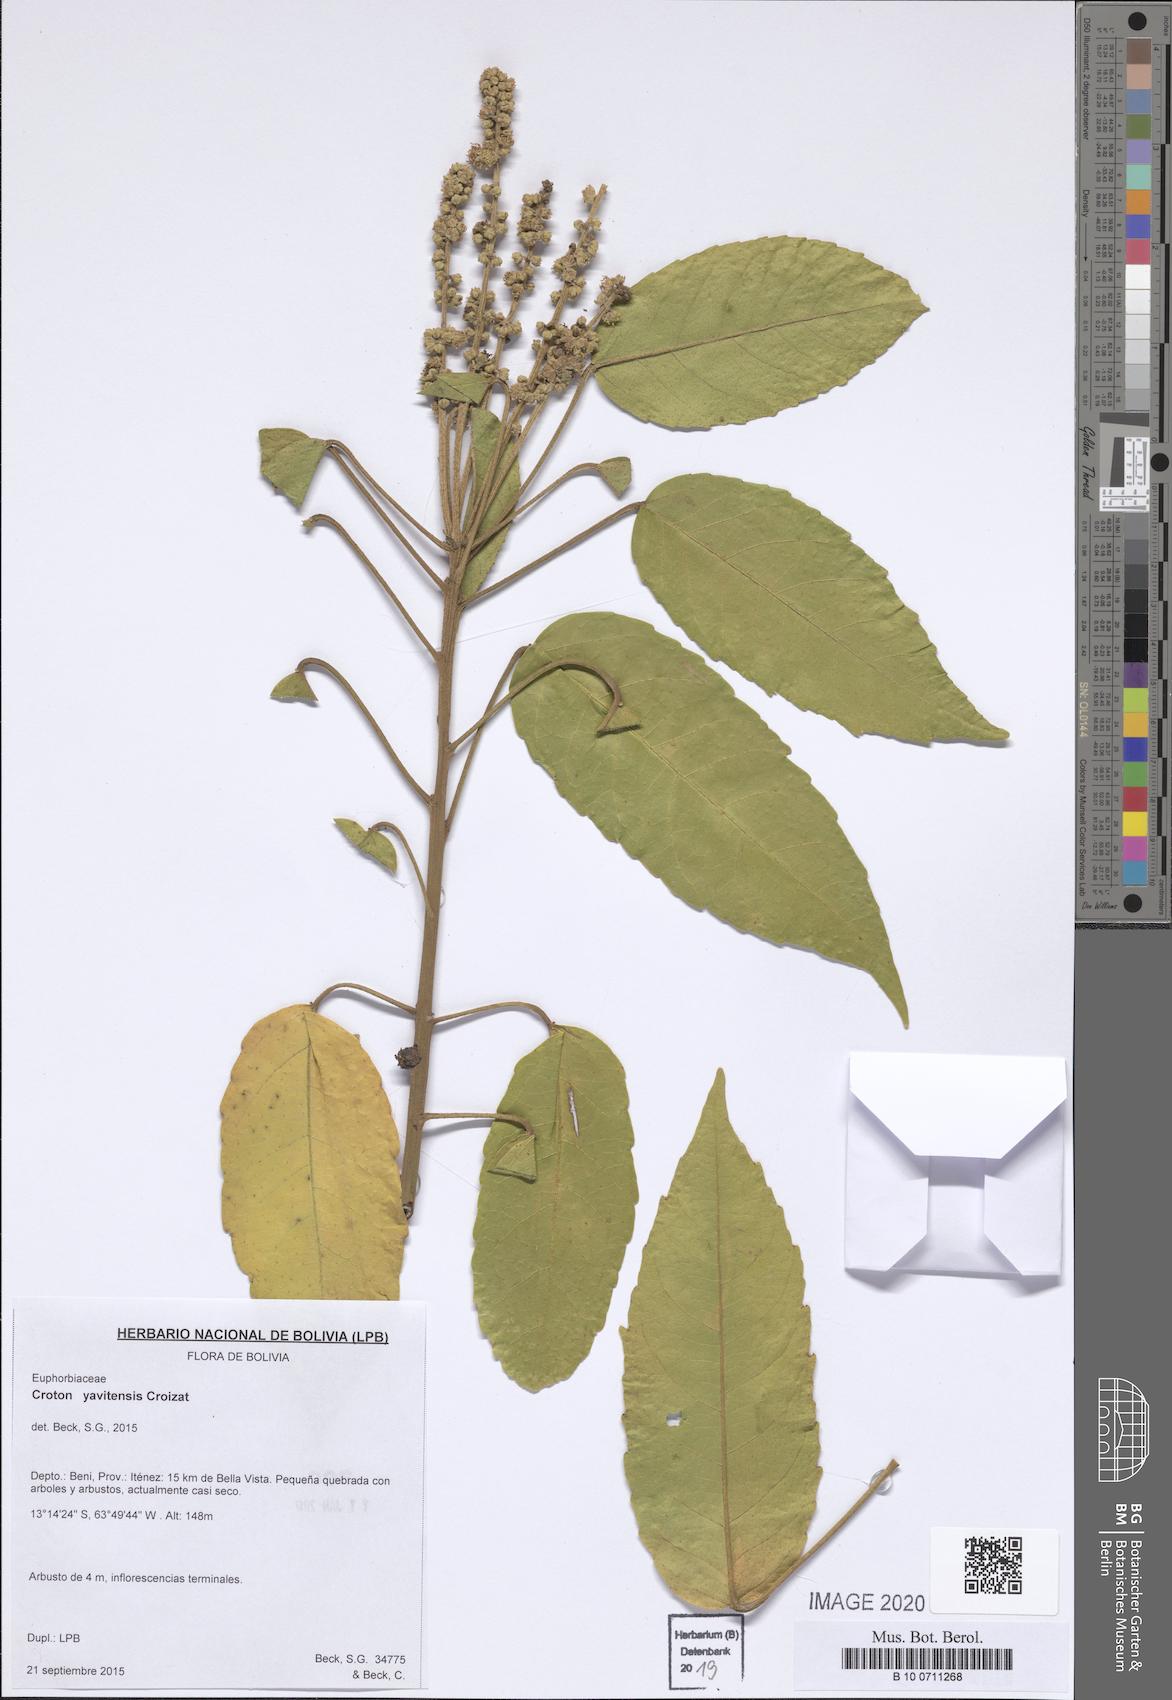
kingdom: Plantae
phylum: Tracheophyta
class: Magnoliopsida
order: Malpighiales
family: Euphorbiaceae
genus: Croton
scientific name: Croton yavitensis
